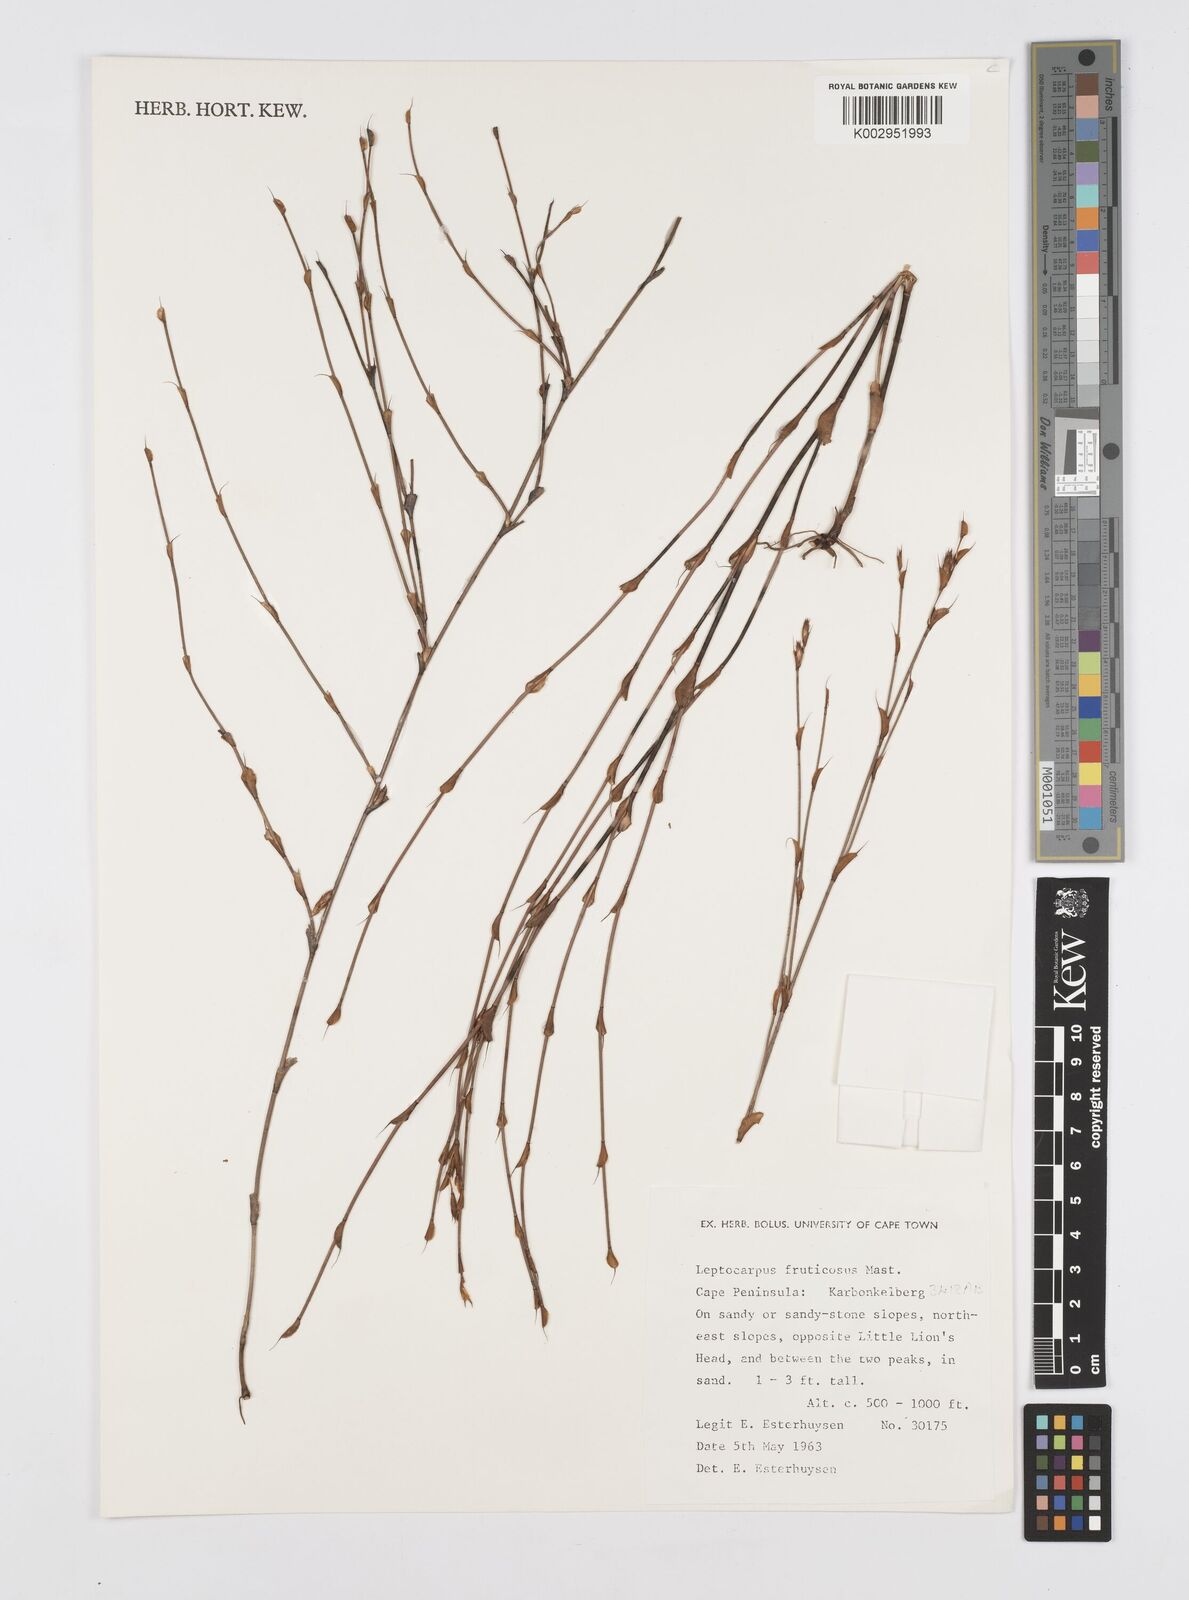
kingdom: Plantae
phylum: Tracheophyta
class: Liliopsida
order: Poales
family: Restionaceae
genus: Rhodocoma
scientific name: Rhodocoma fruticosa
